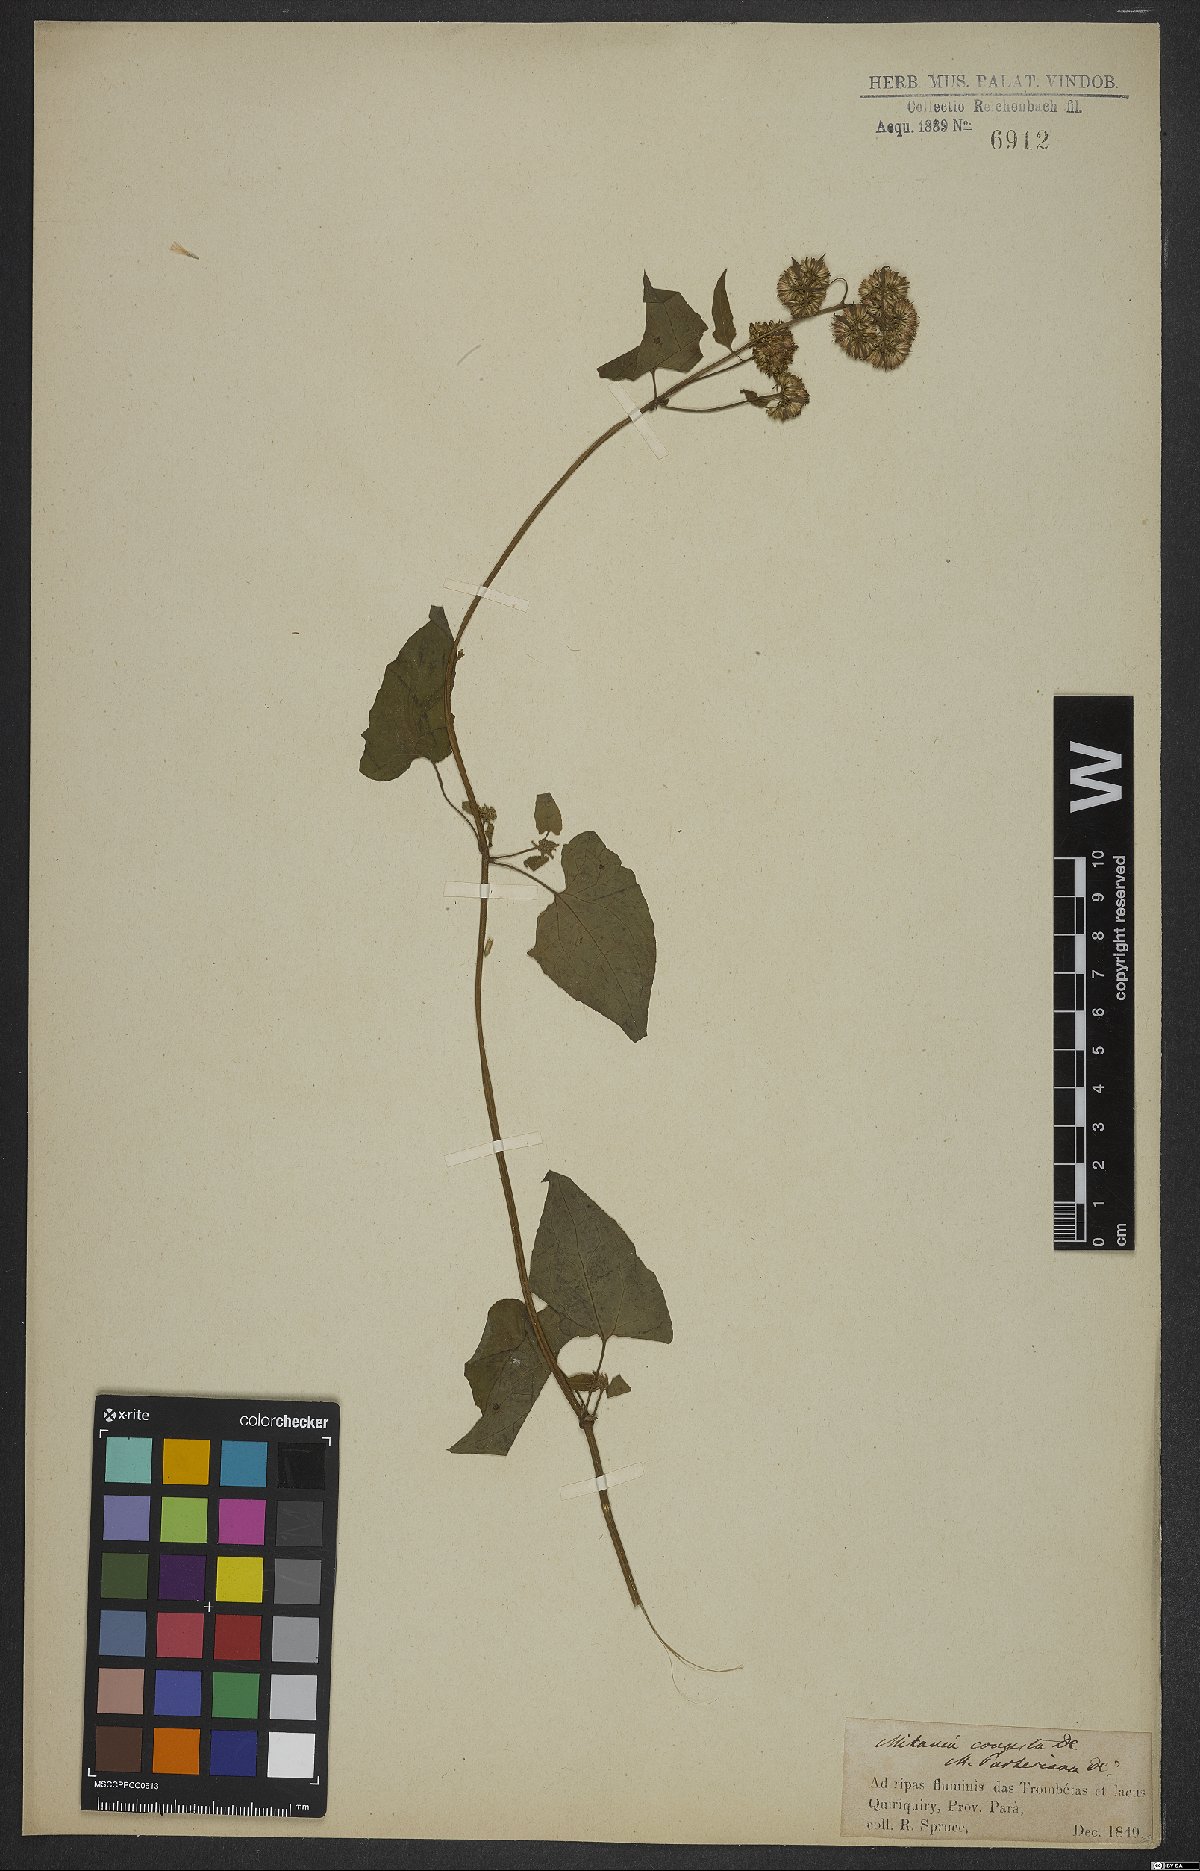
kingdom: Plantae
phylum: Tracheophyta
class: Magnoliopsida
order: Asterales
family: Asteraceae
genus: Mikania
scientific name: Mikania congesta
